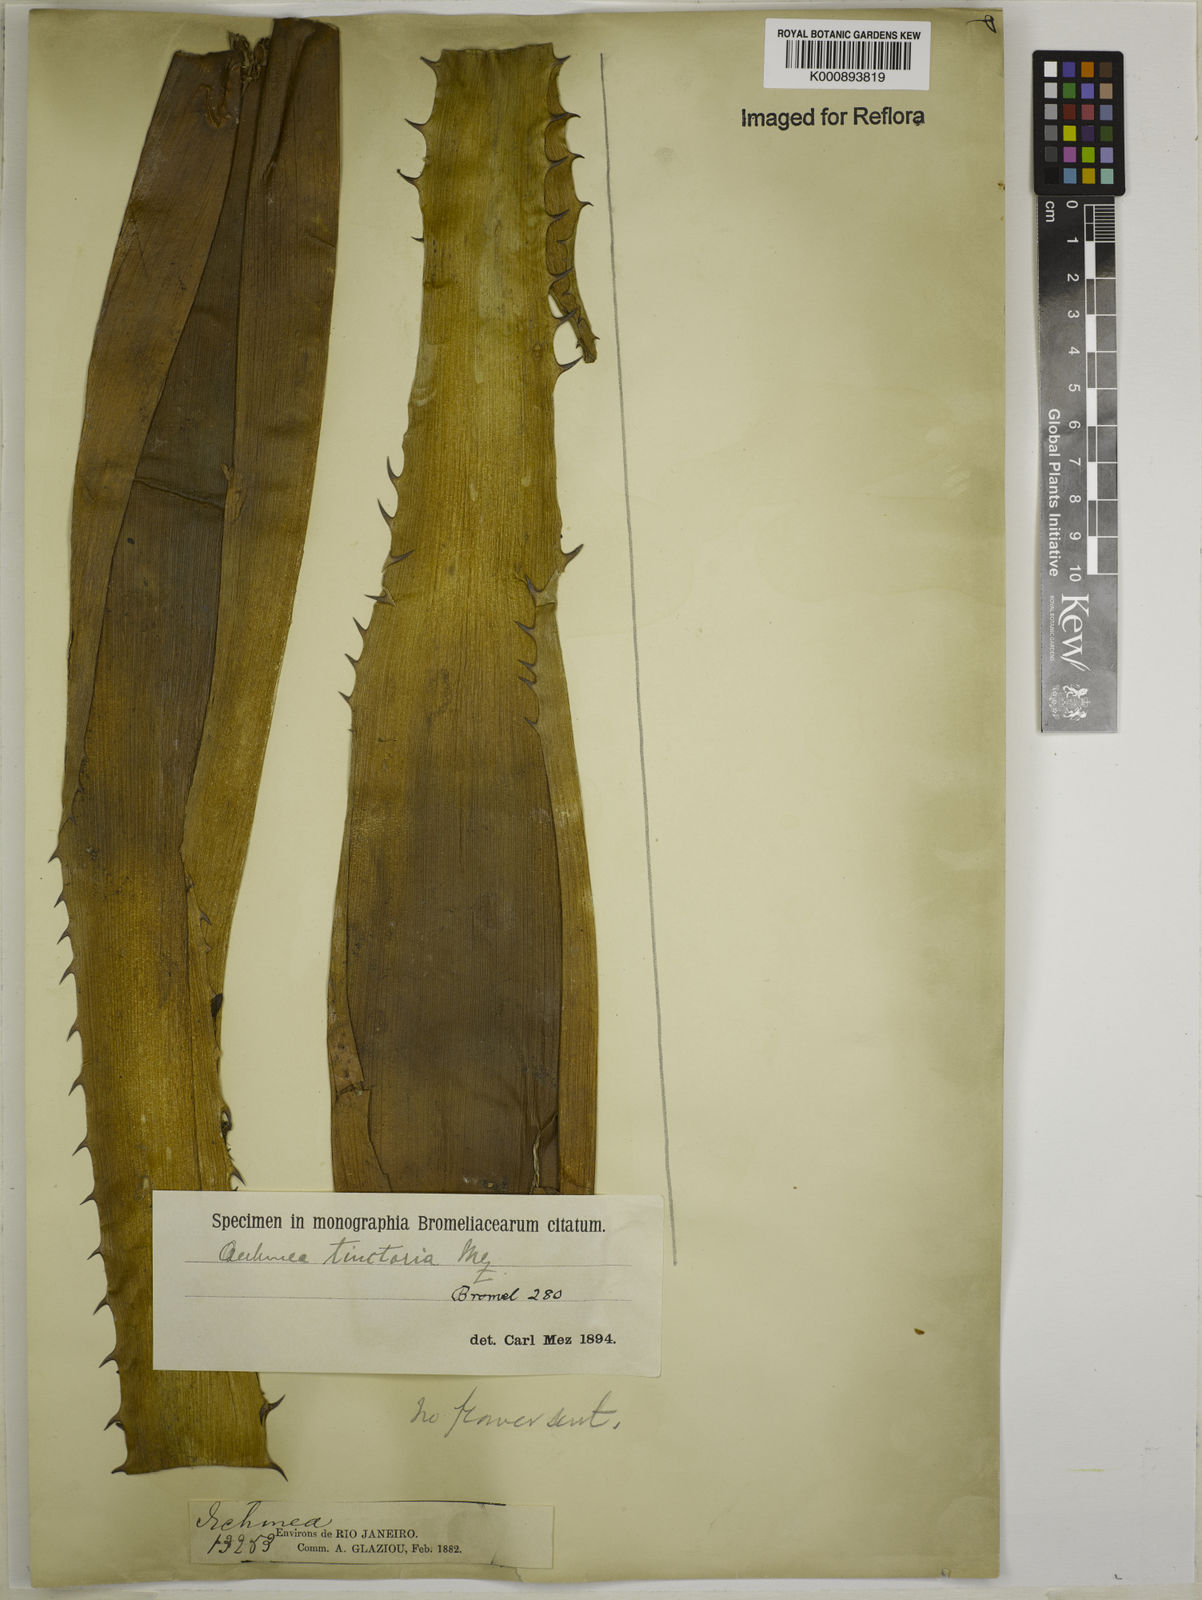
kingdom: Plantae
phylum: Tracheophyta
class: Liliopsida
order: Poales
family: Bromeliaceae
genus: Aechmea
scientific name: Aechmea
